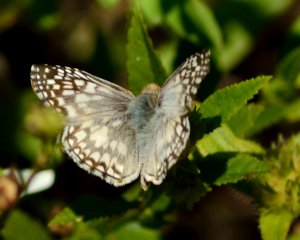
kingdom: Animalia
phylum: Arthropoda
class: Insecta
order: Lepidoptera
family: Hesperiidae
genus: Pyrgus
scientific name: Pyrgus oileus
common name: Tropical Checkered-Skipper
